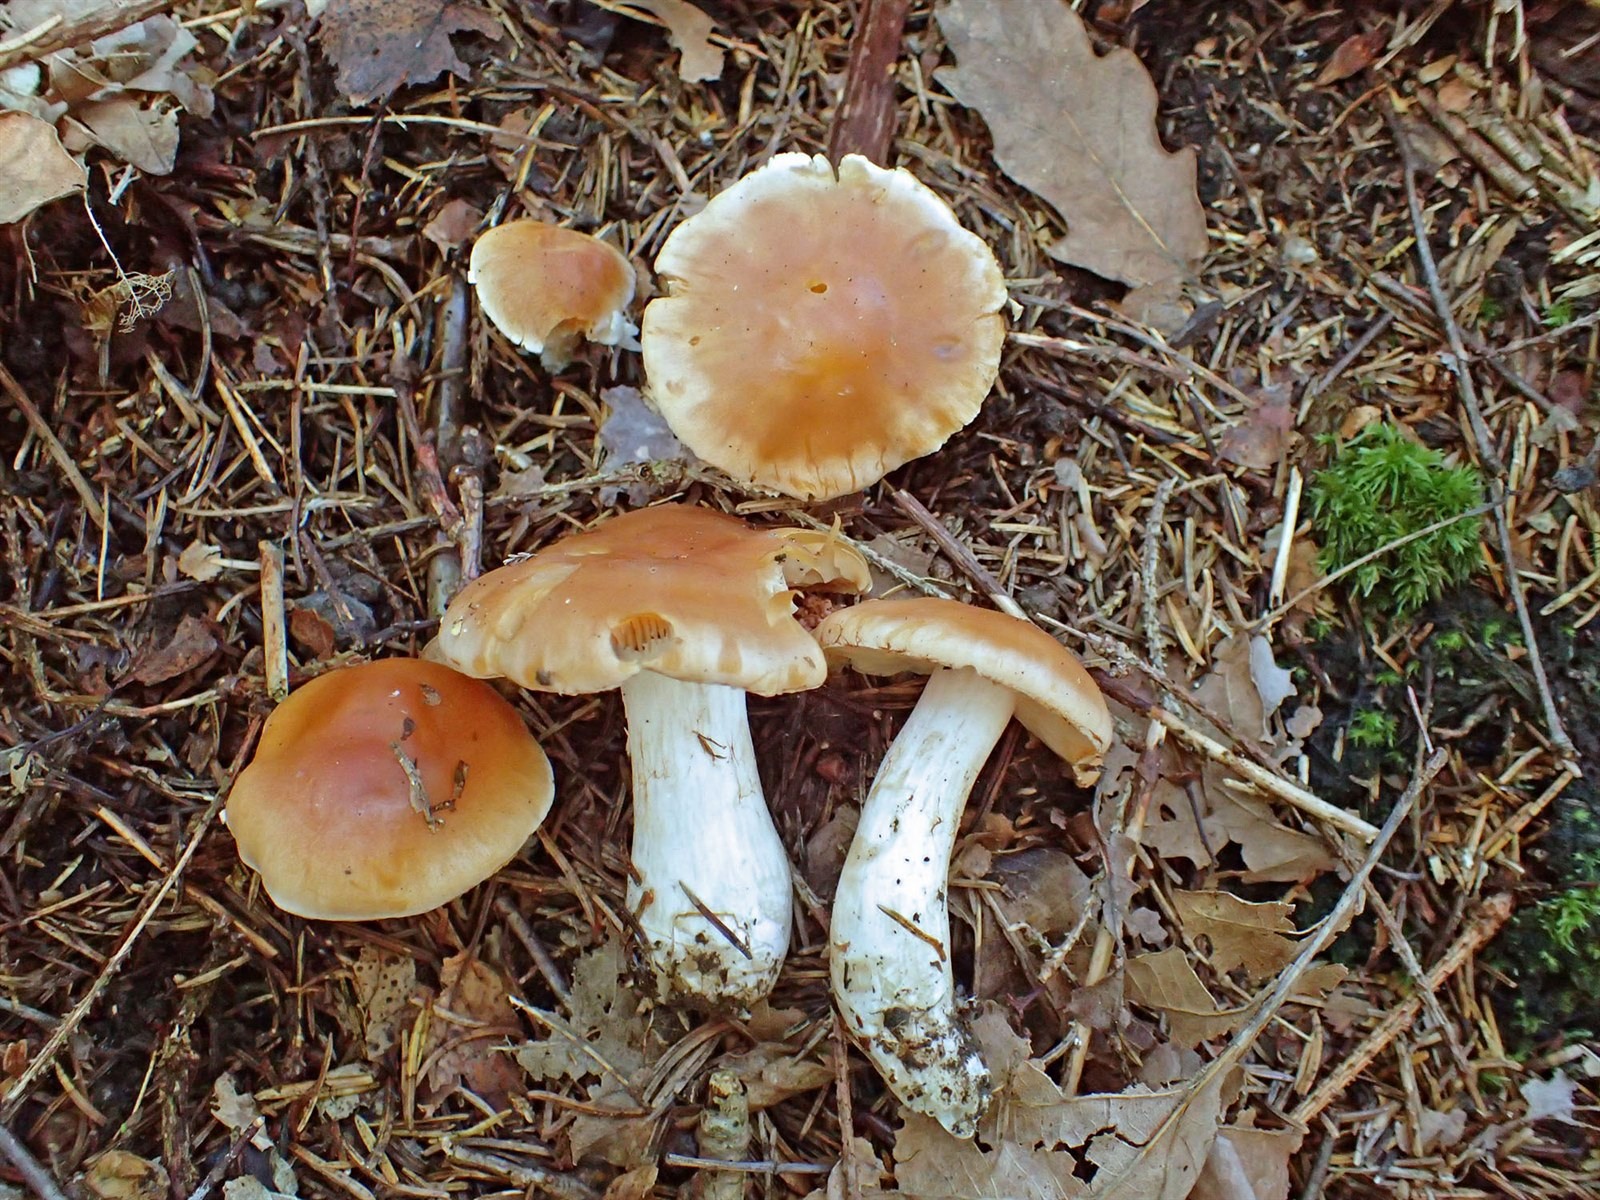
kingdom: Fungi
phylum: Basidiomycota
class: Agaricomycetes
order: Agaricales
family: Cortinariaceae
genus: Thaxterogaster
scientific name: Thaxterogaster microspermus
